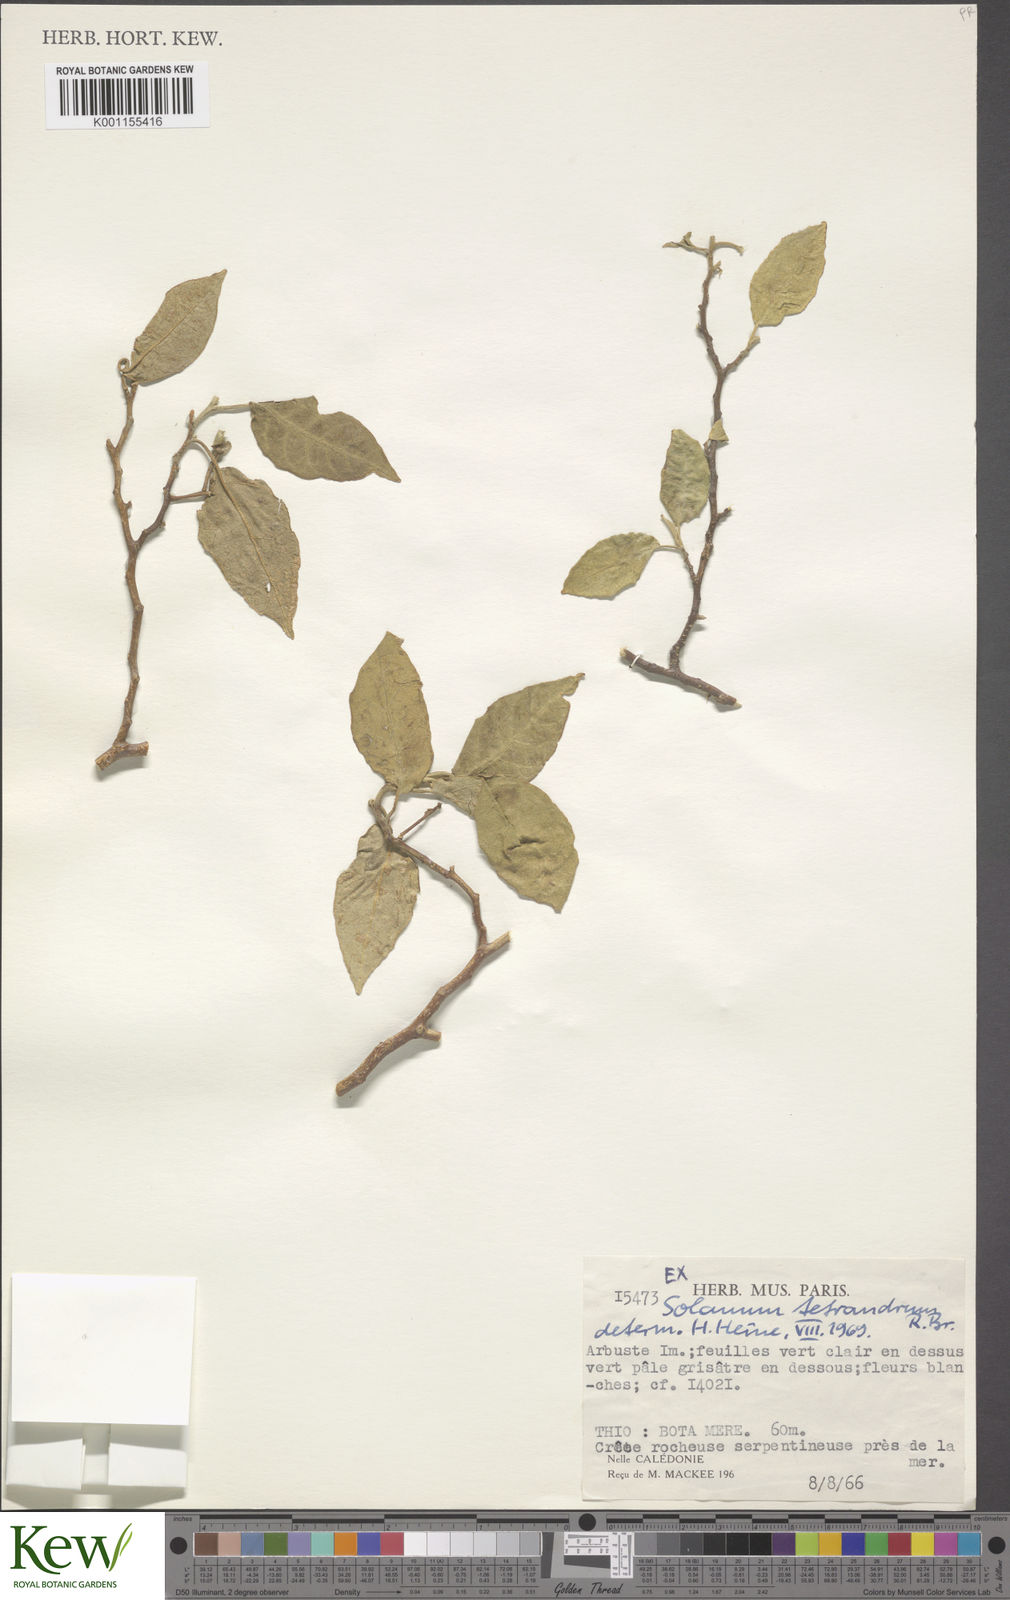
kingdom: Plantae
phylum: Tracheophyta
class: Magnoliopsida
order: Solanales
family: Solanaceae
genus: Solanum
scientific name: Solanum tetrandrum
